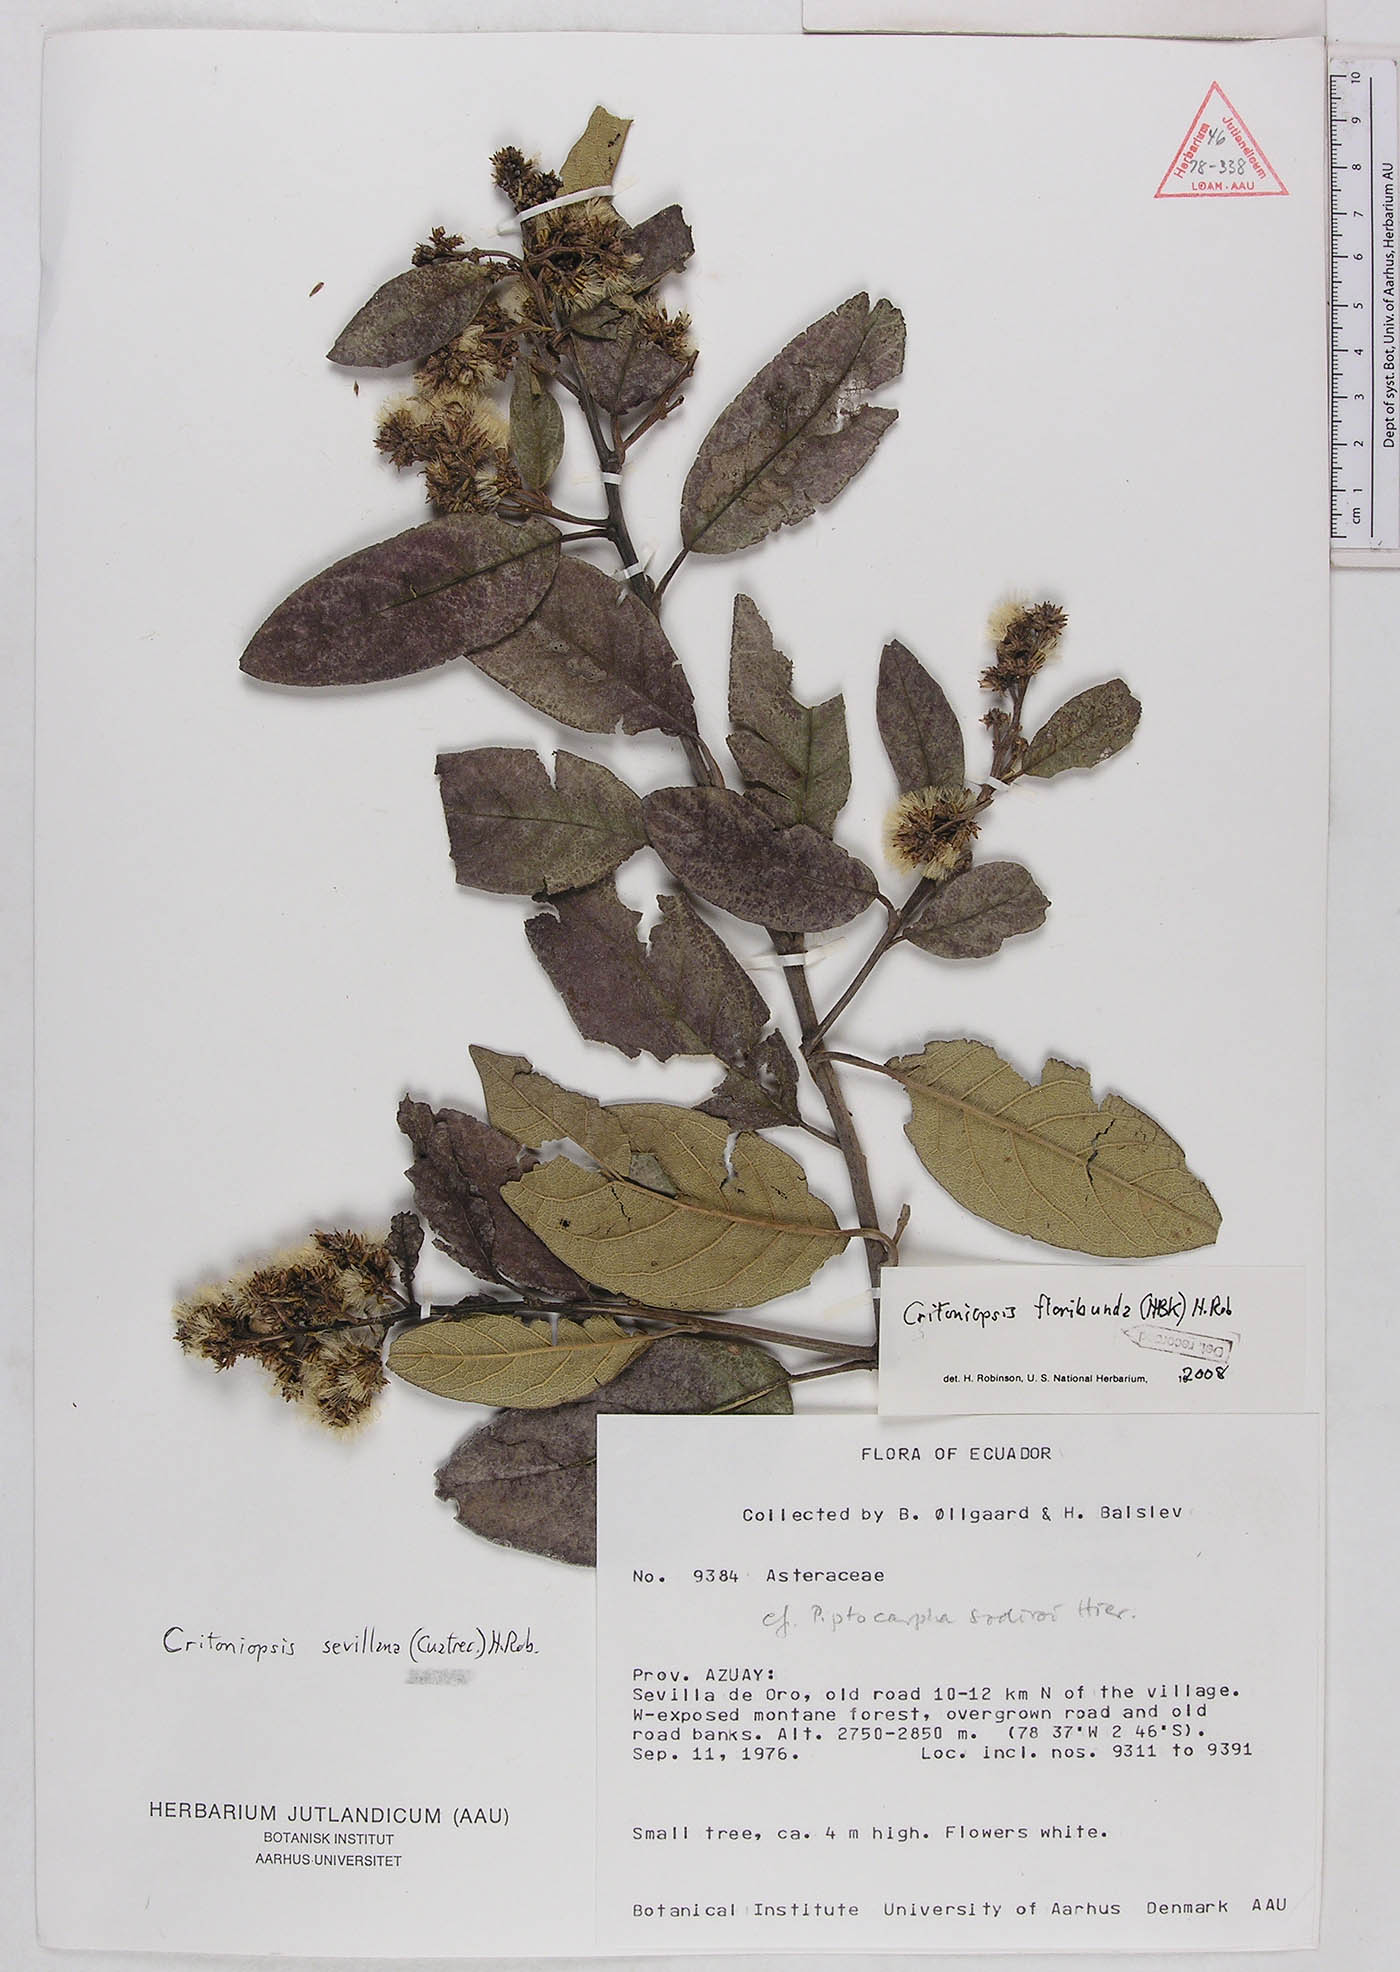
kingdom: Plantae
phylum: Tracheophyta
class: Magnoliopsida
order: Asterales
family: Asteraceae
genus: Critoniopsis
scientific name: Critoniopsis floribunda
